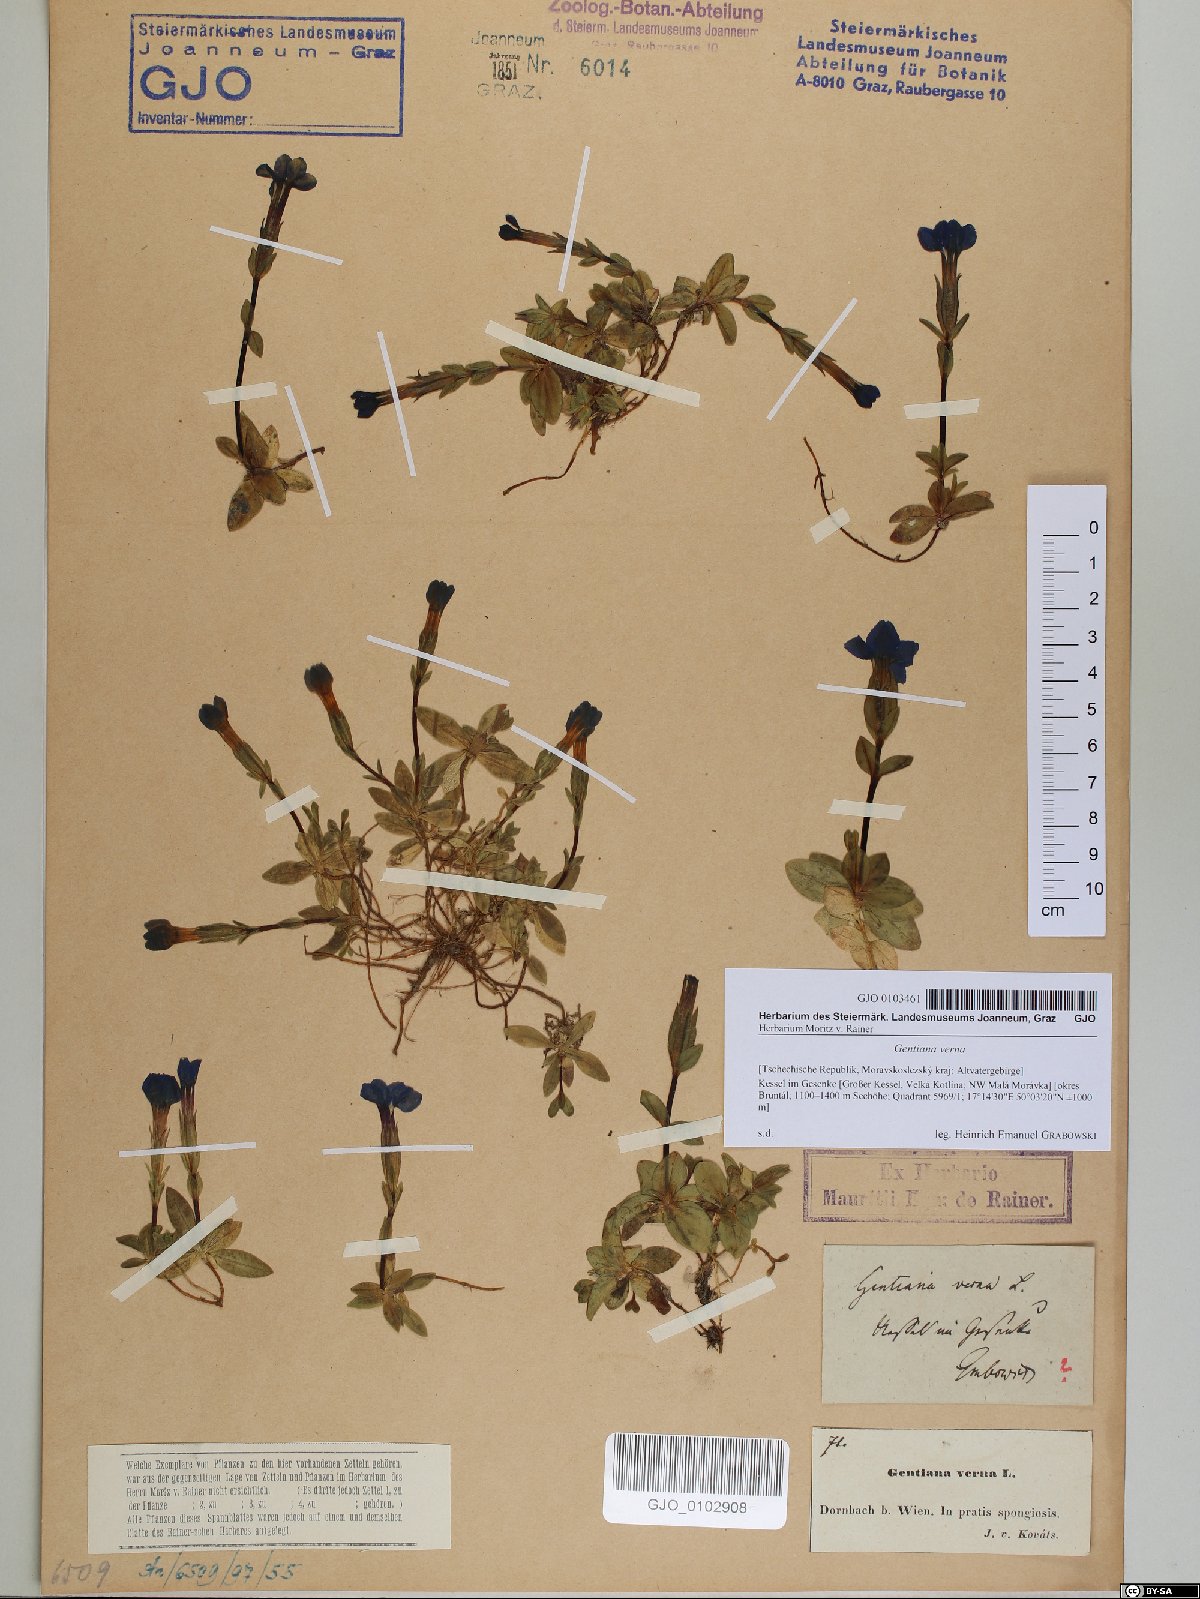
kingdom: Plantae
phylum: Tracheophyta
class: Magnoliopsida
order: Gentianales
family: Gentianaceae
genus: Gentiana
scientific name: Gentiana verna
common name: Spring gentian
